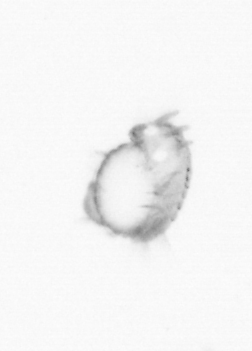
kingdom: Animalia
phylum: Annelida
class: Polychaeta
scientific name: Polychaeta
